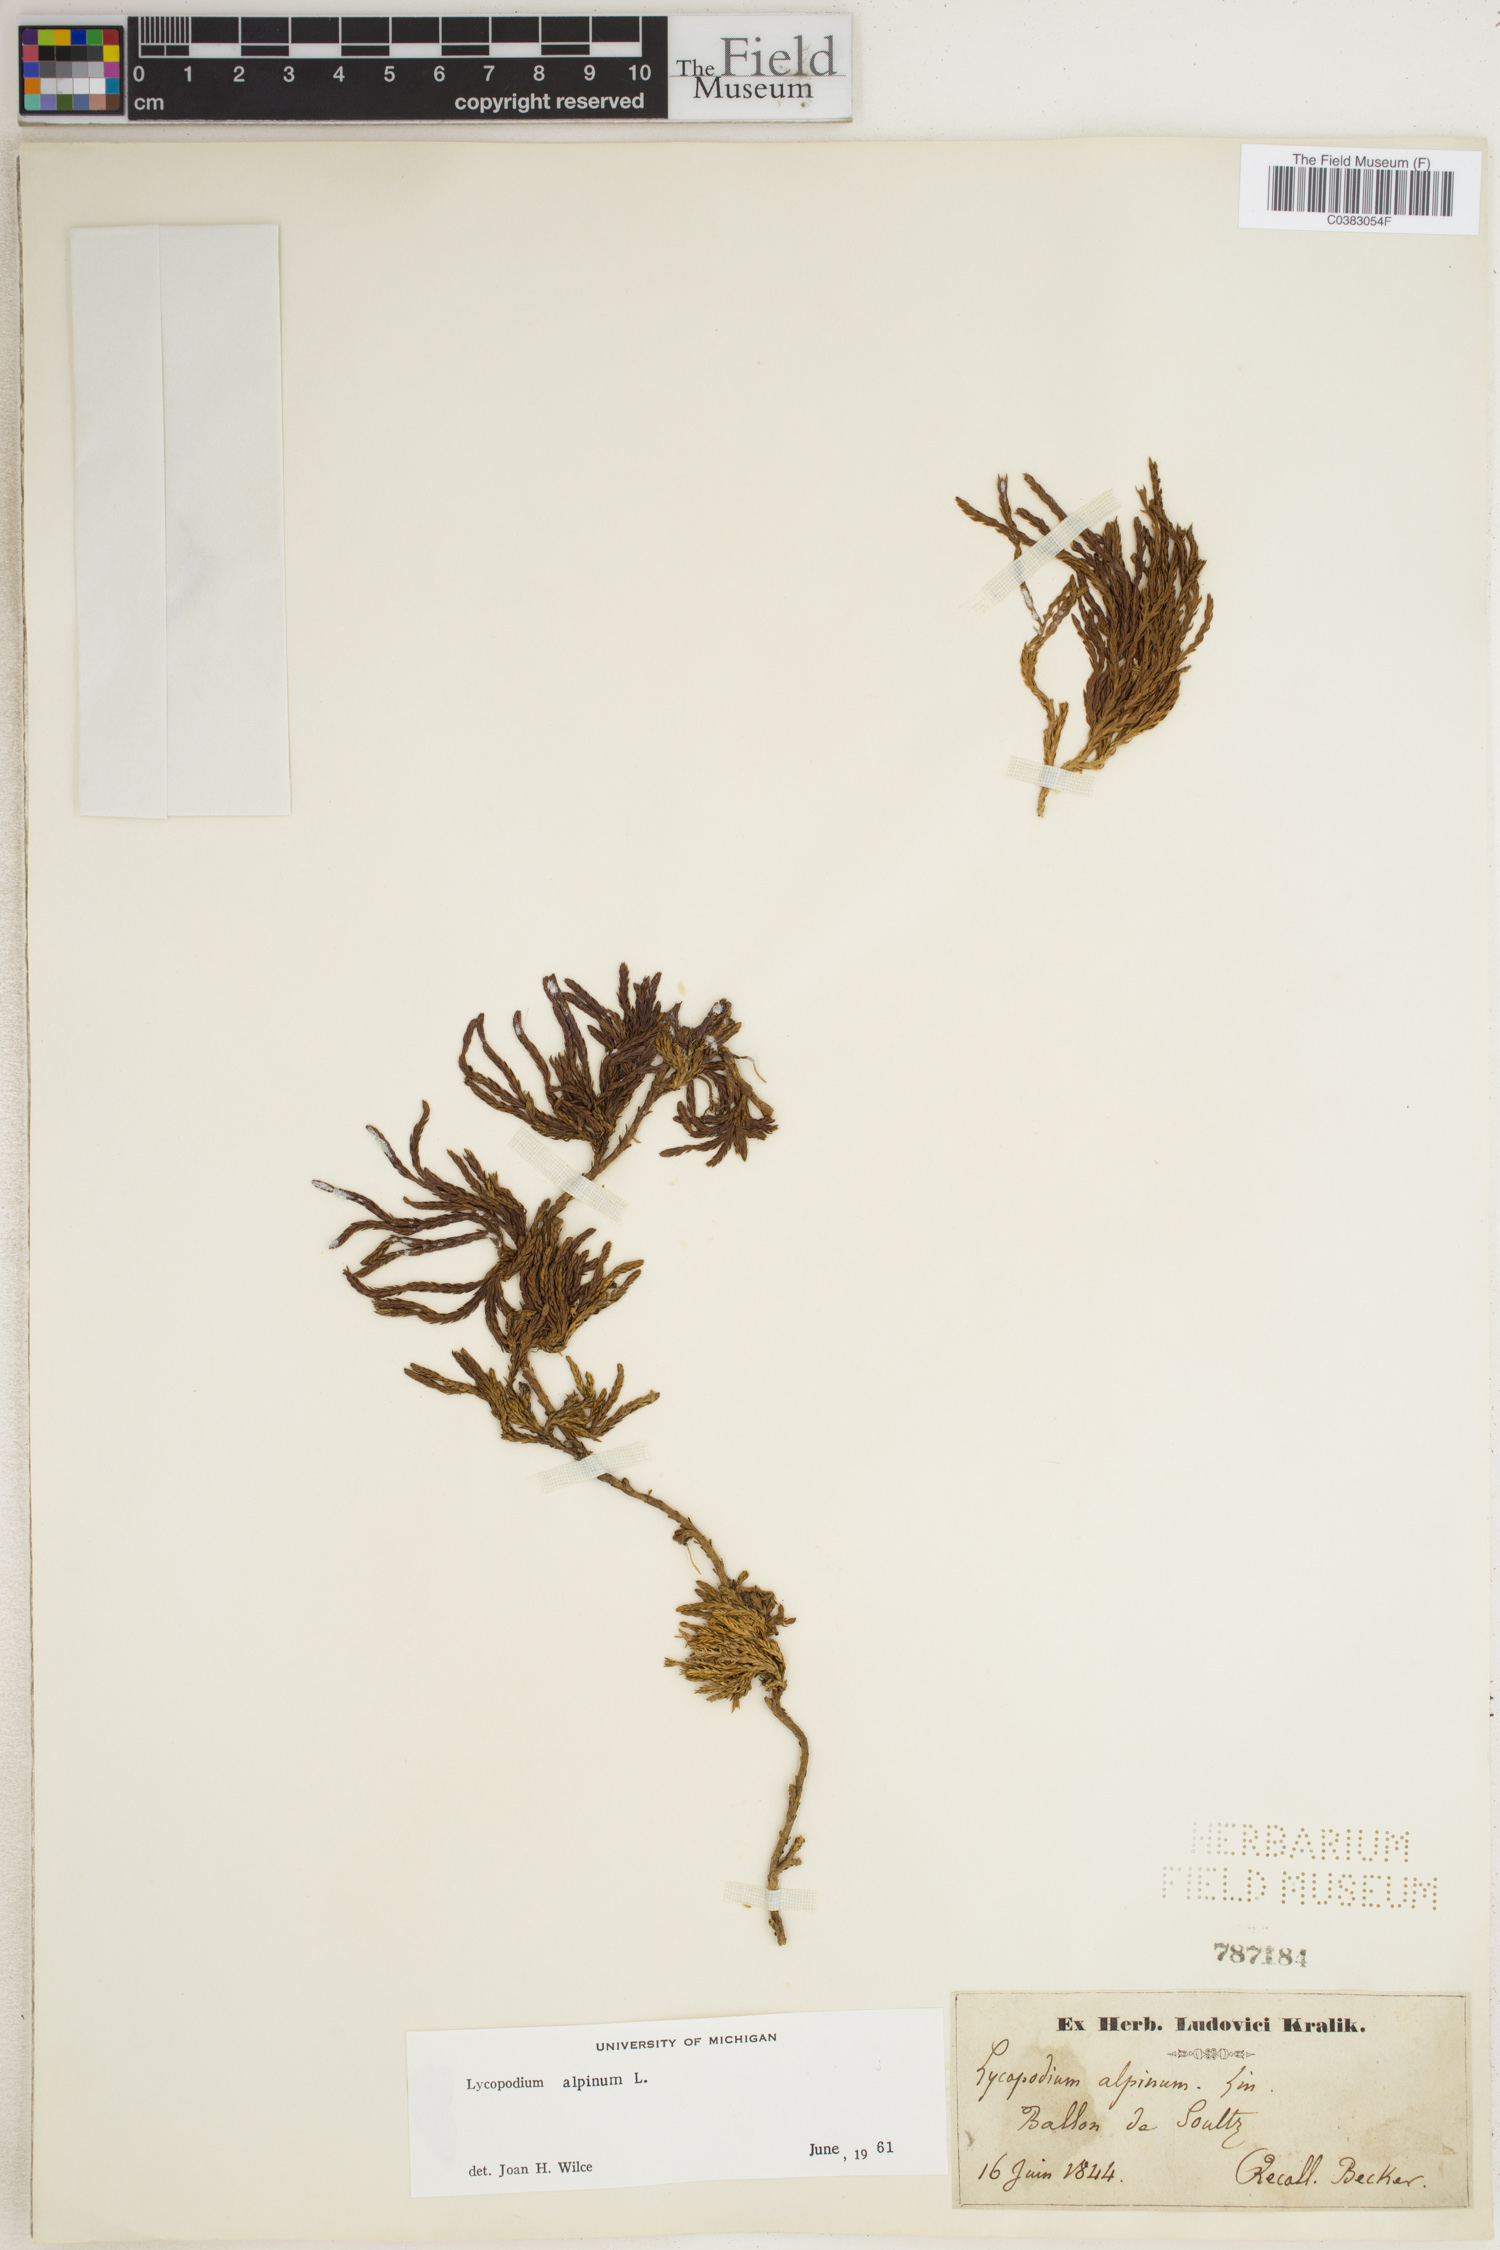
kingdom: Plantae
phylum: Tracheophyta
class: Lycopodiopsida
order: Lycopodiales
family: Lycopodiaceae
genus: Diphasiastrum
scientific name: Diphasiastrum alpinum
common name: Alpine clubmoss
